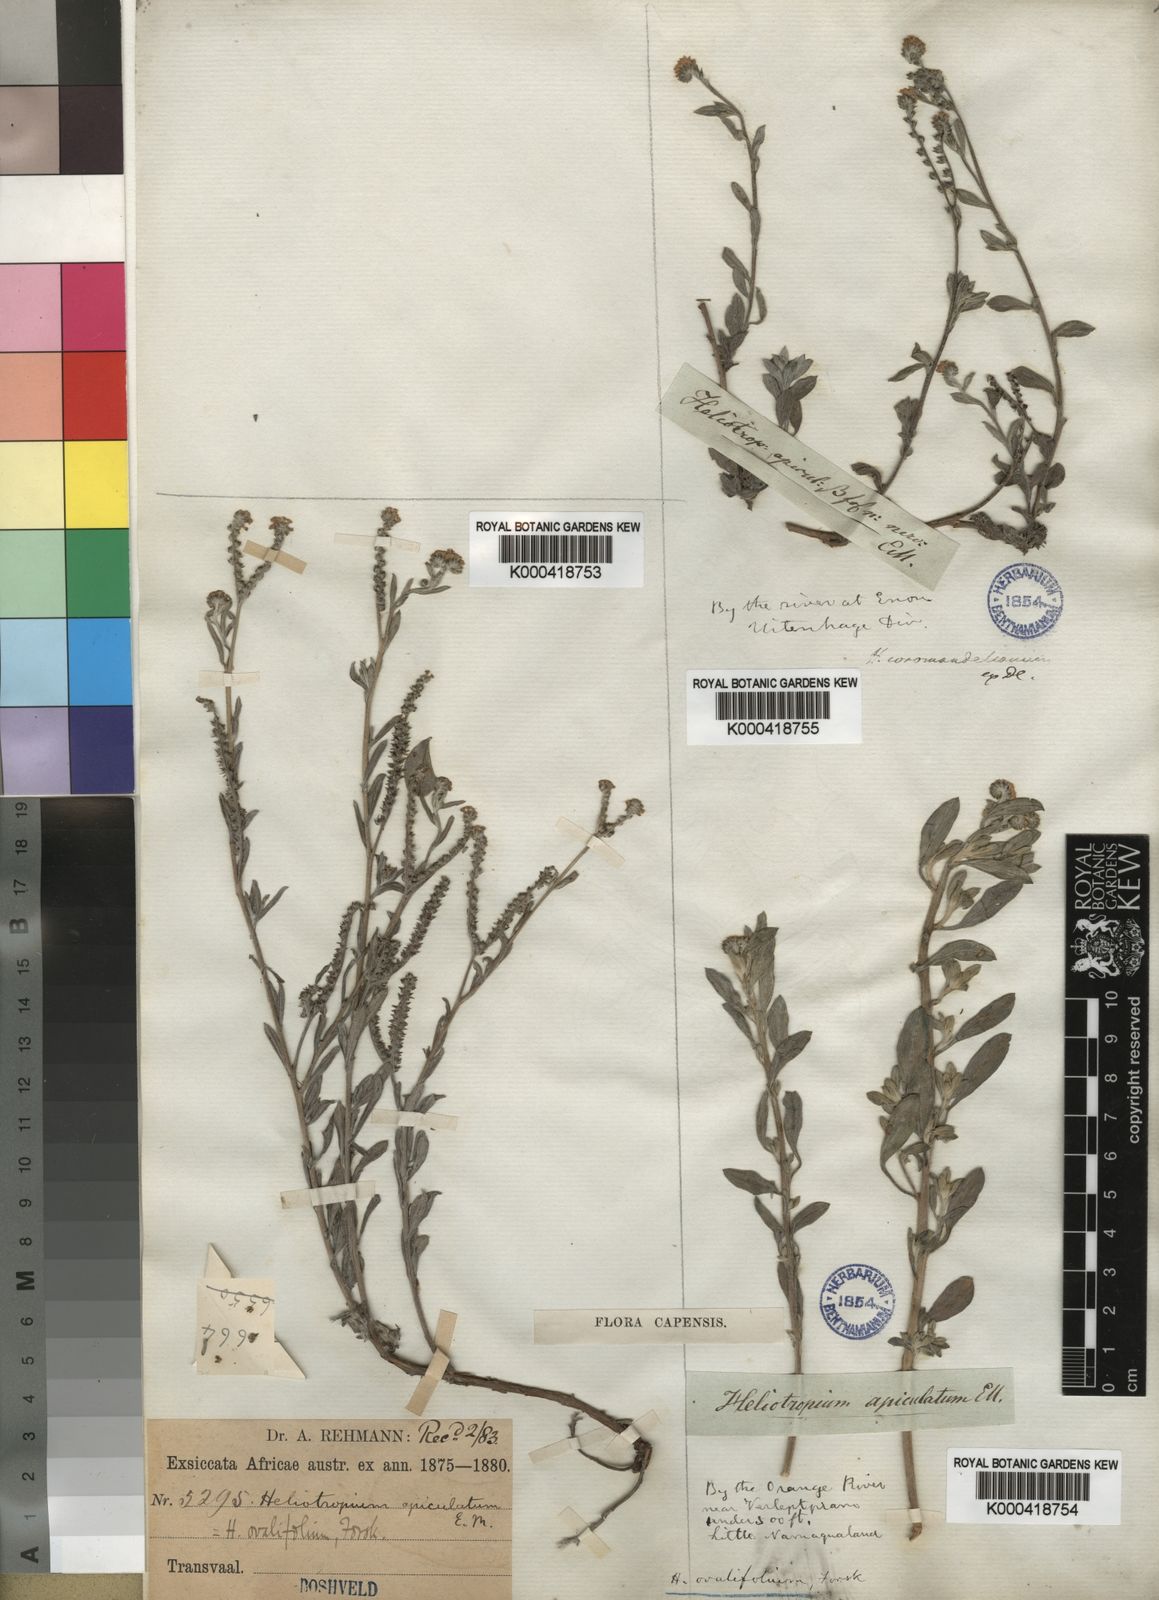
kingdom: Plantae
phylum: Tracheophyta
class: Magnoliopsida
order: Boraginales
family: Heliotropiaceae
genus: Euploca
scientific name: Euploca ovalifolia
